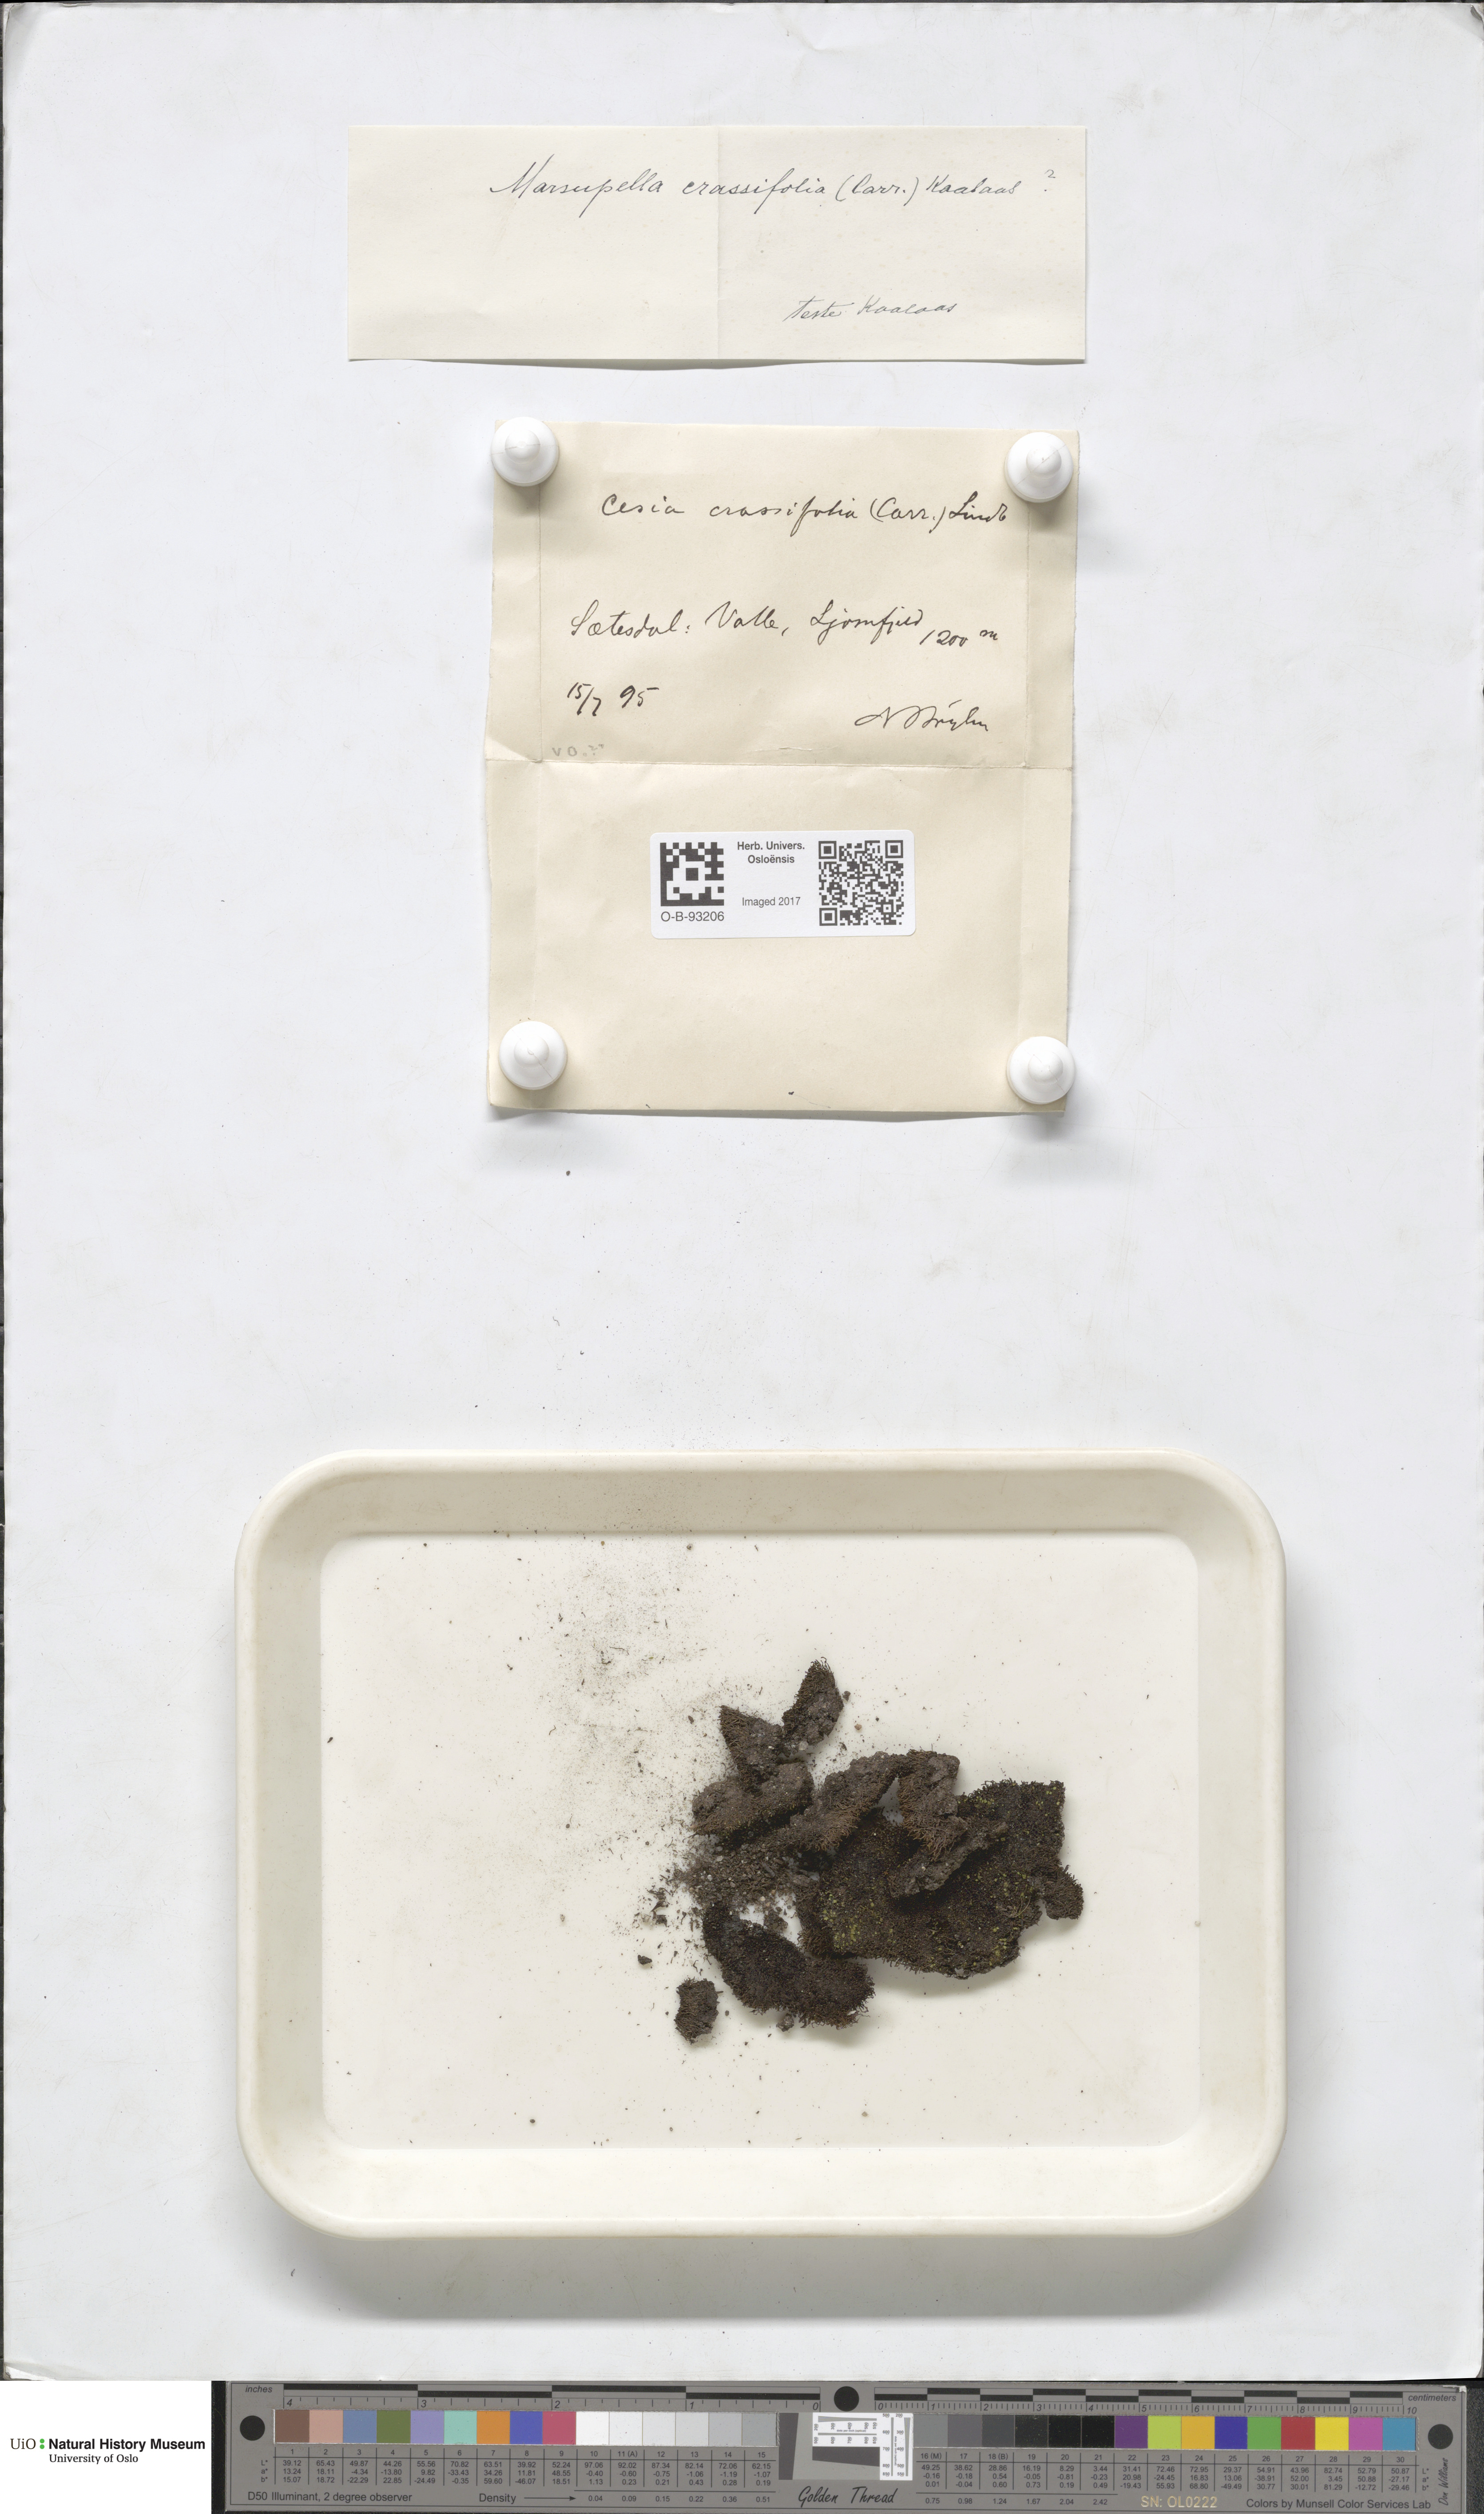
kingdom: Plantae
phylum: Marchantiophyta
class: Jungermanniopsida
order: Jungermanniales
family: Gymnomitriaceae
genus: Gymnomitrion
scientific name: Gymnomitrion brevissimum
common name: Snow rustwort
